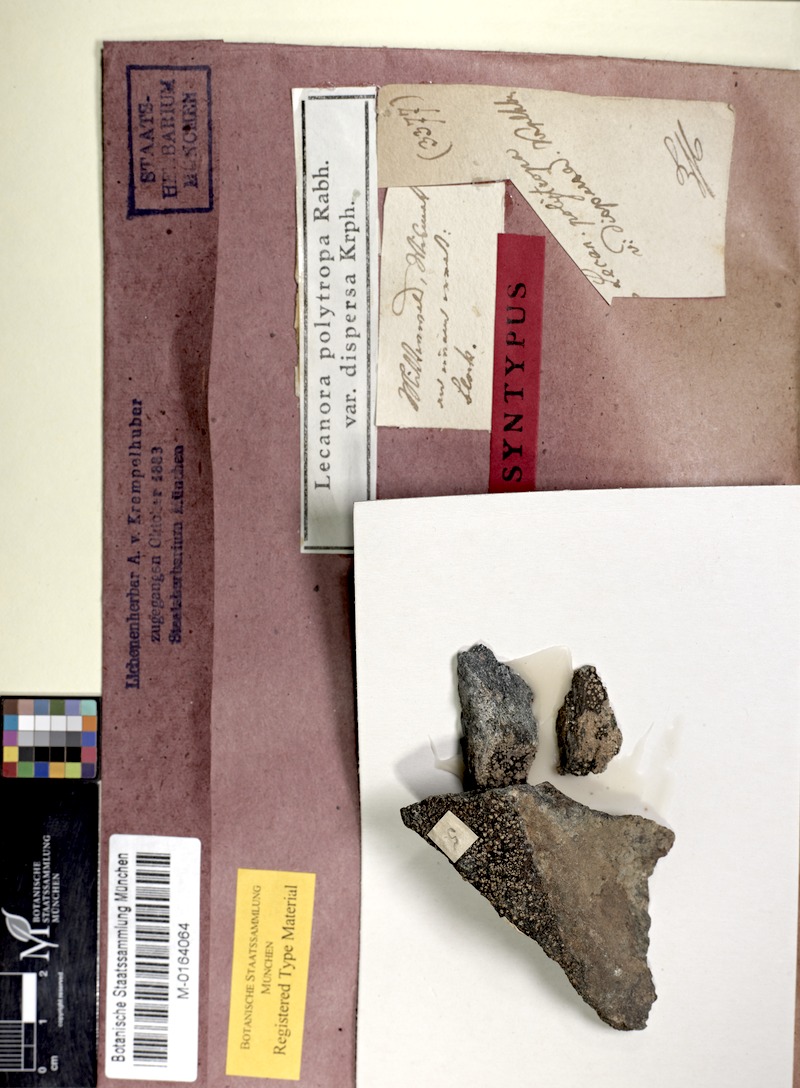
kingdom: Fungi
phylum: Ascomycota
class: Lecanoromycetes
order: Lecanorales
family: Lecanoraceae
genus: Lecanora
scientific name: Lecanora polytropa
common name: Granite-speck rim lichen
